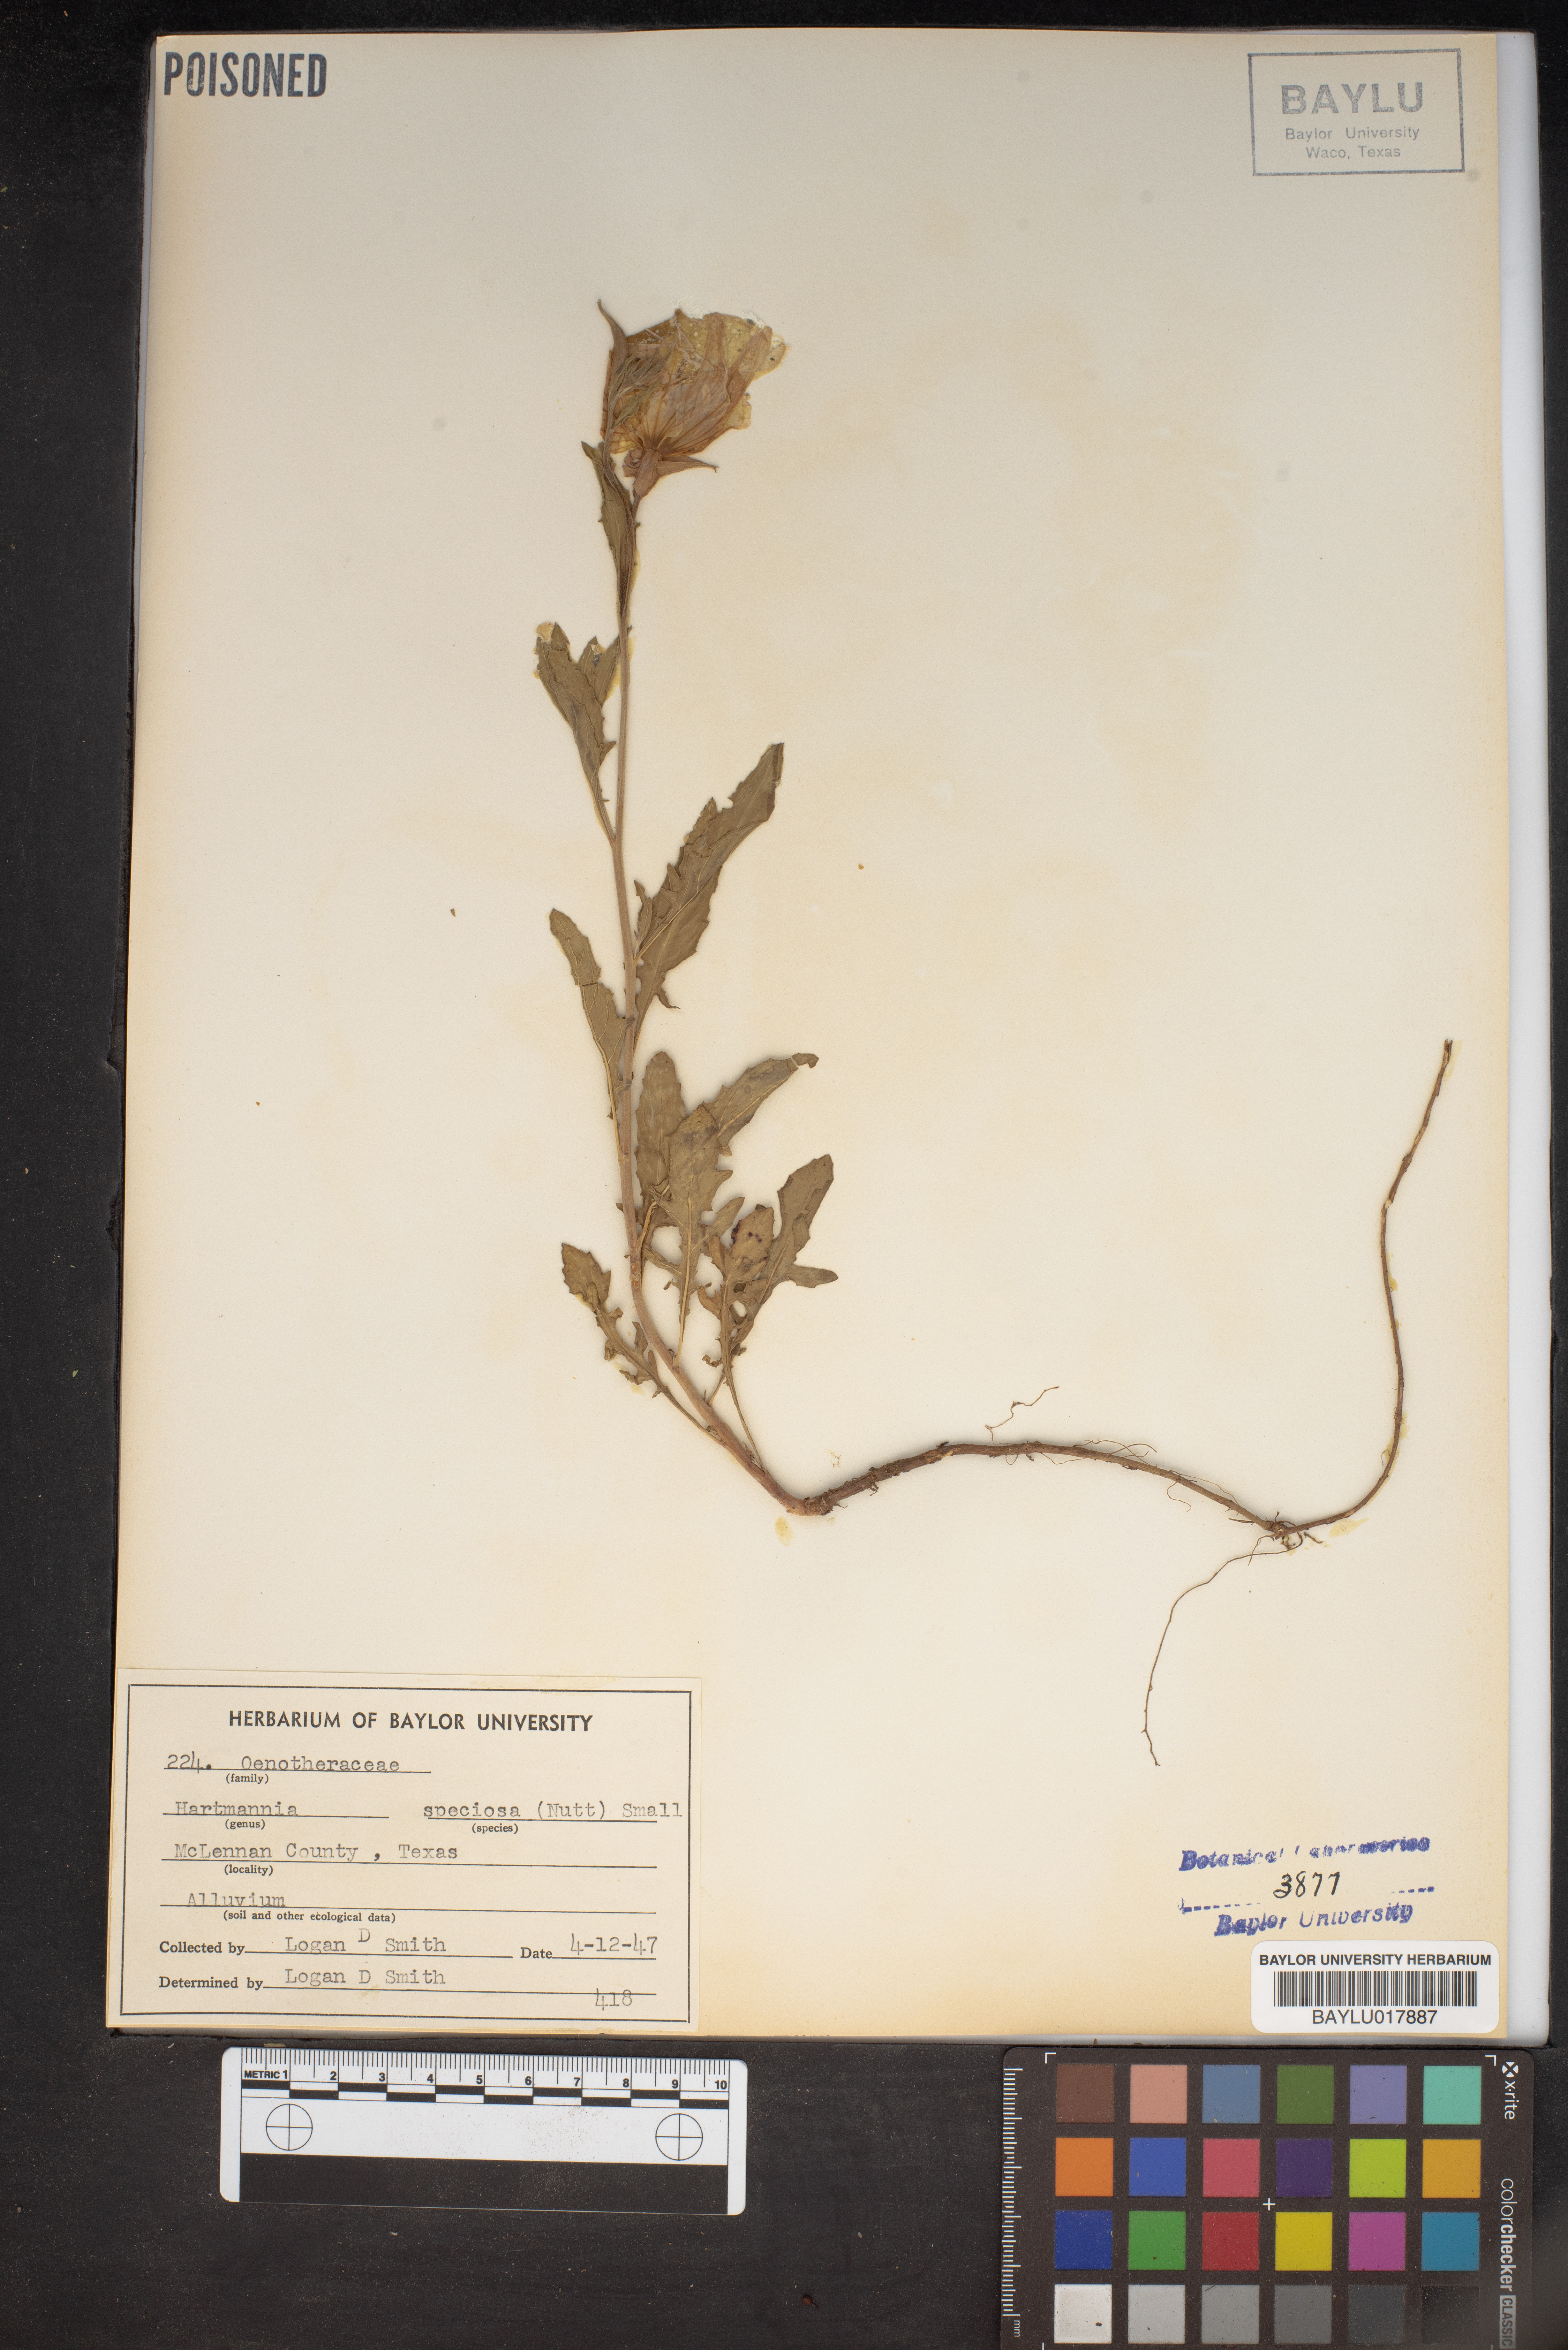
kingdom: Plantae
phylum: Tracheophyta
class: Magnoliopsida
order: Myrtales
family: Onagraceae
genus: Oenothera
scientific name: Oenothera speciosa
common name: White evening-primrose
